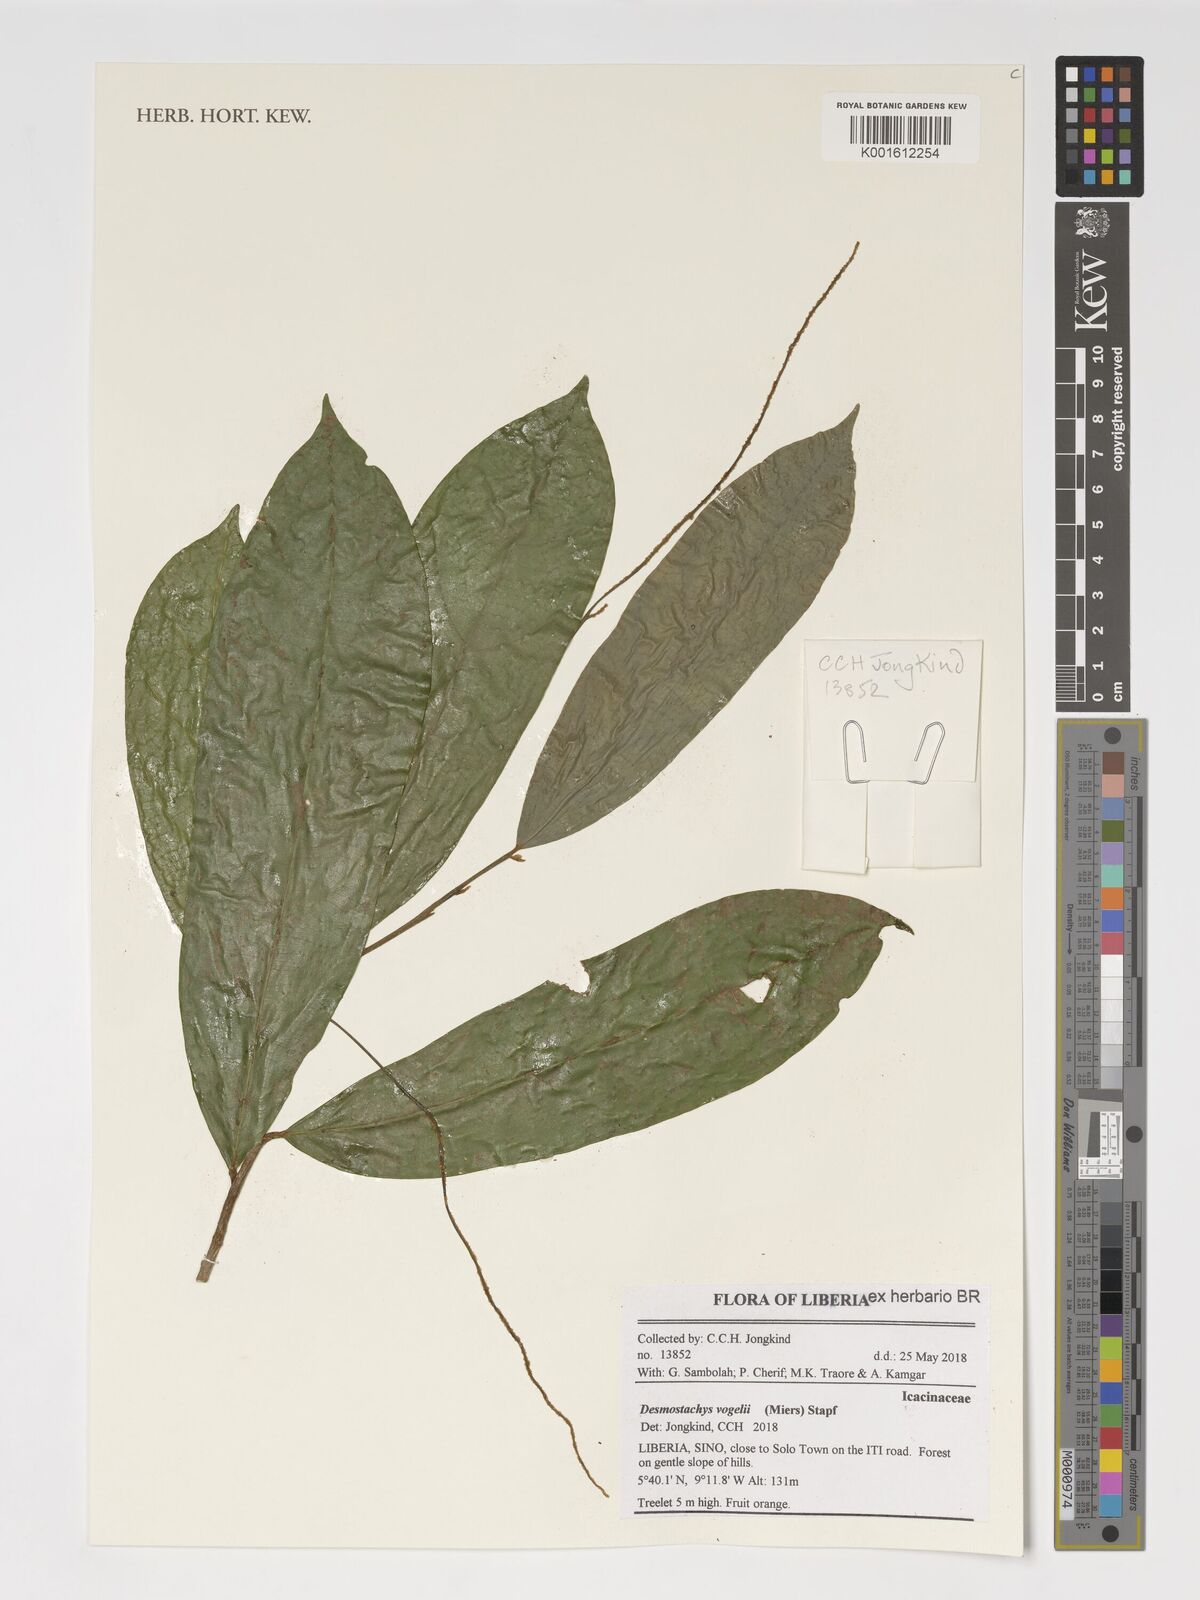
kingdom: Plantae
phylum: Tracheophyta
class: Magnoliopsida
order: Icacinales
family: Icacinaceae
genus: Vadensea
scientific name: Vadensea vogelii
